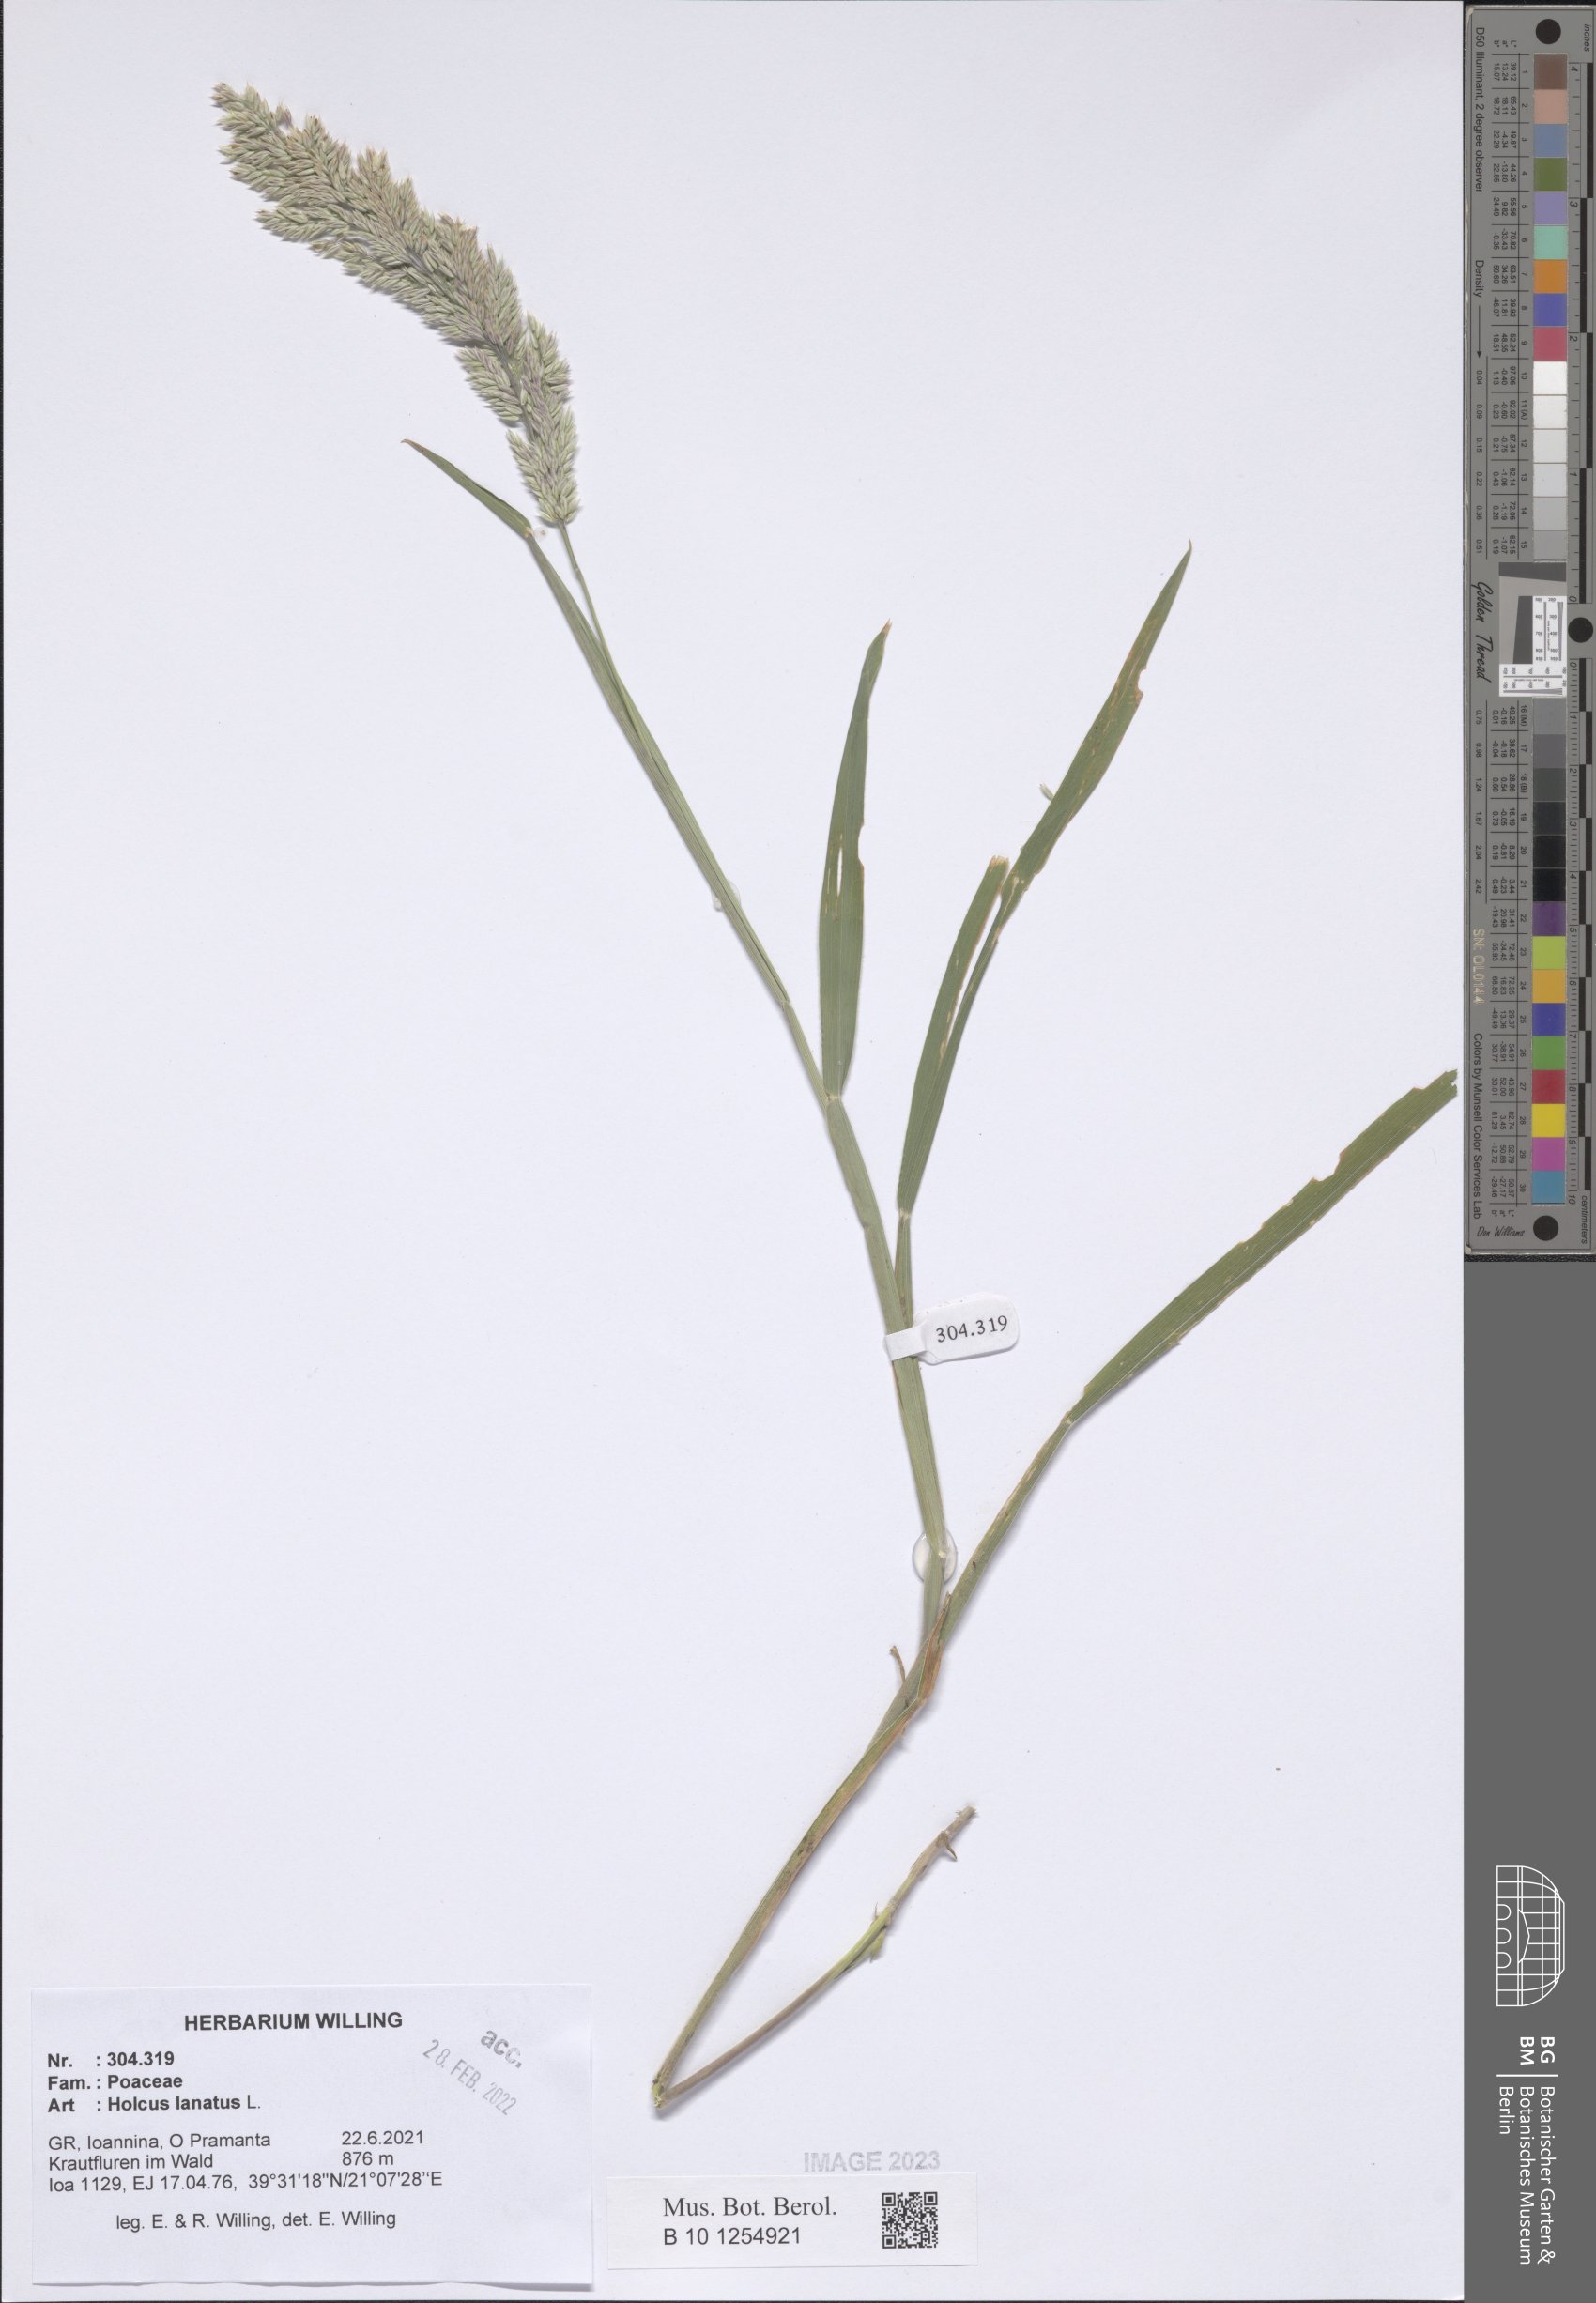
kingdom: Plantae
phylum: Tracheophyta
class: Liliopsida
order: Poales
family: Poaceae
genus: Holcus
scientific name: Holcus lanatus
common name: Yorkshire-fog
